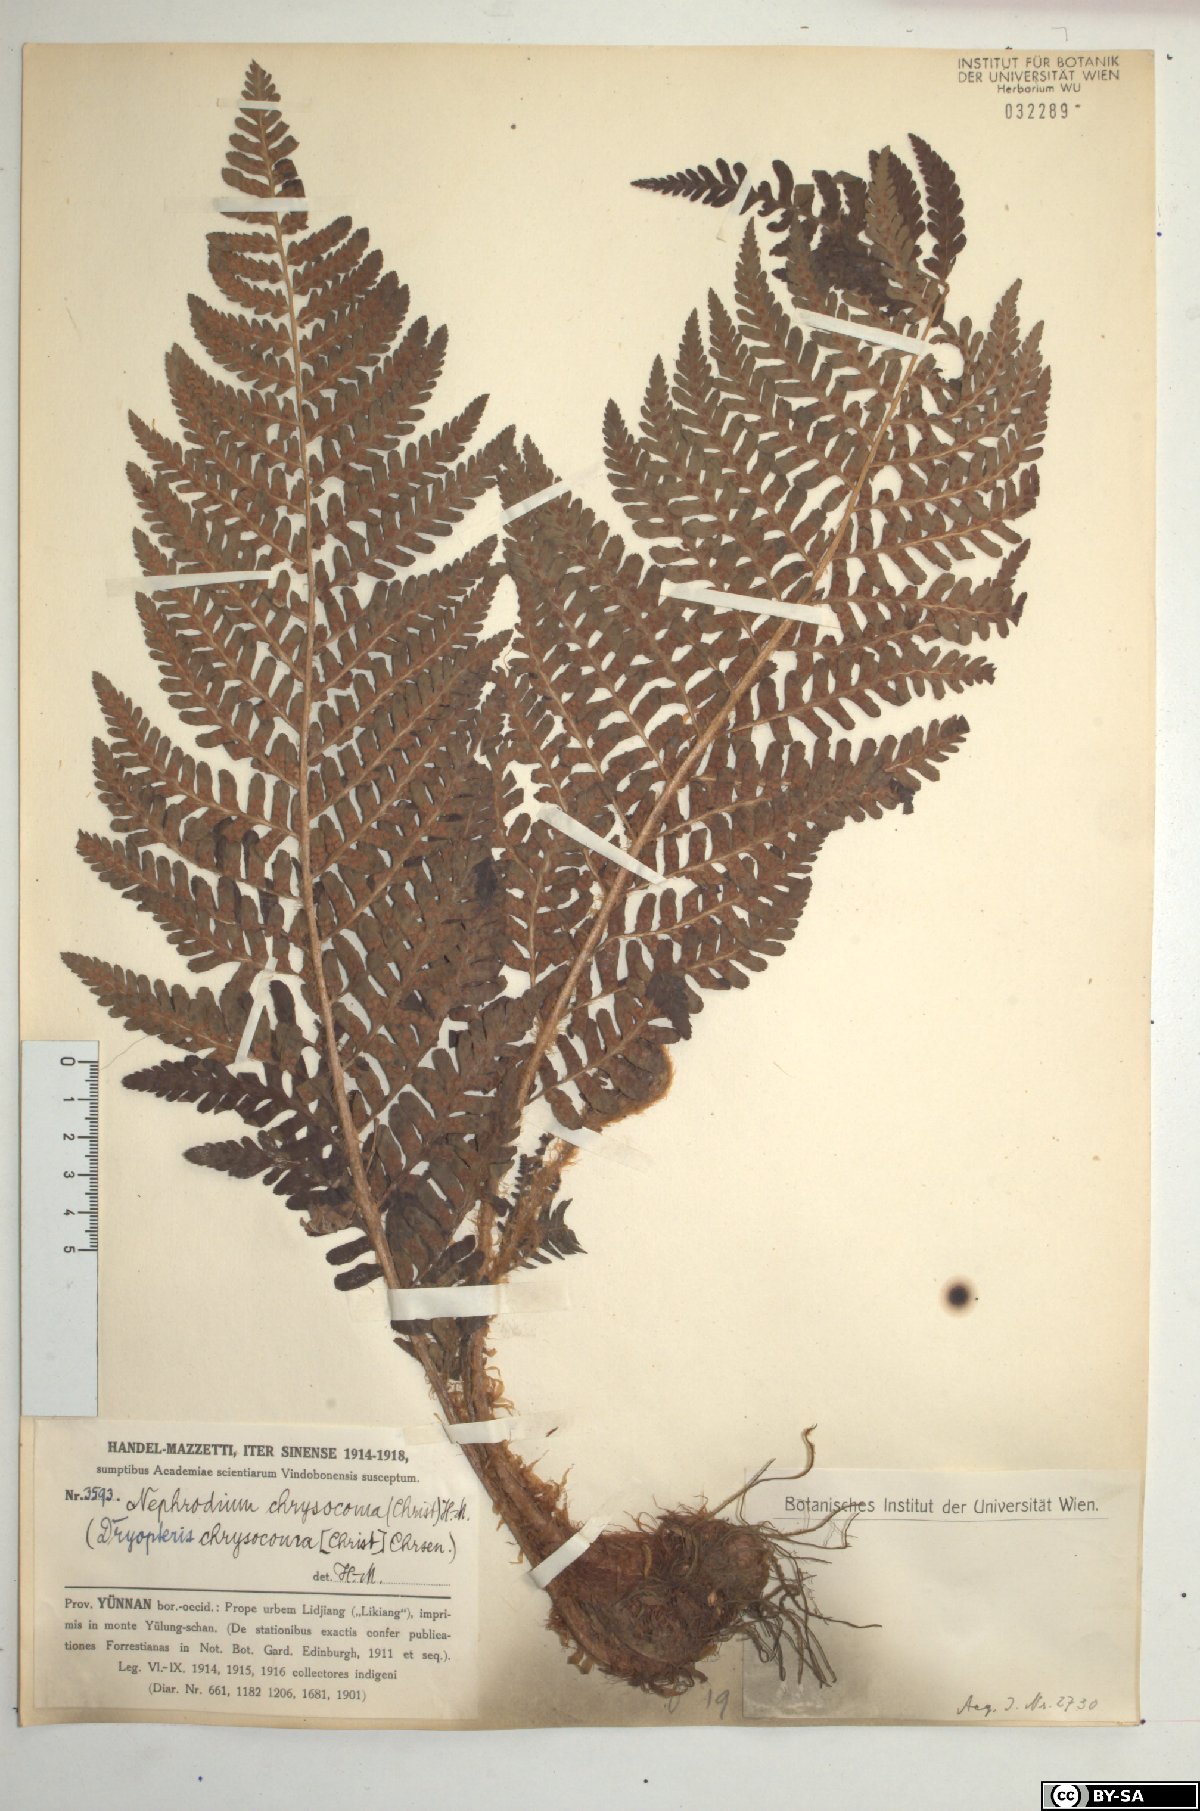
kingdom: Plantae
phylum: Tracheophyta
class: Polypodiopsida
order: Polypodiales
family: Dryopteridaceae
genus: Dryopteris
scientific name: Dryopteris chrysocoma
